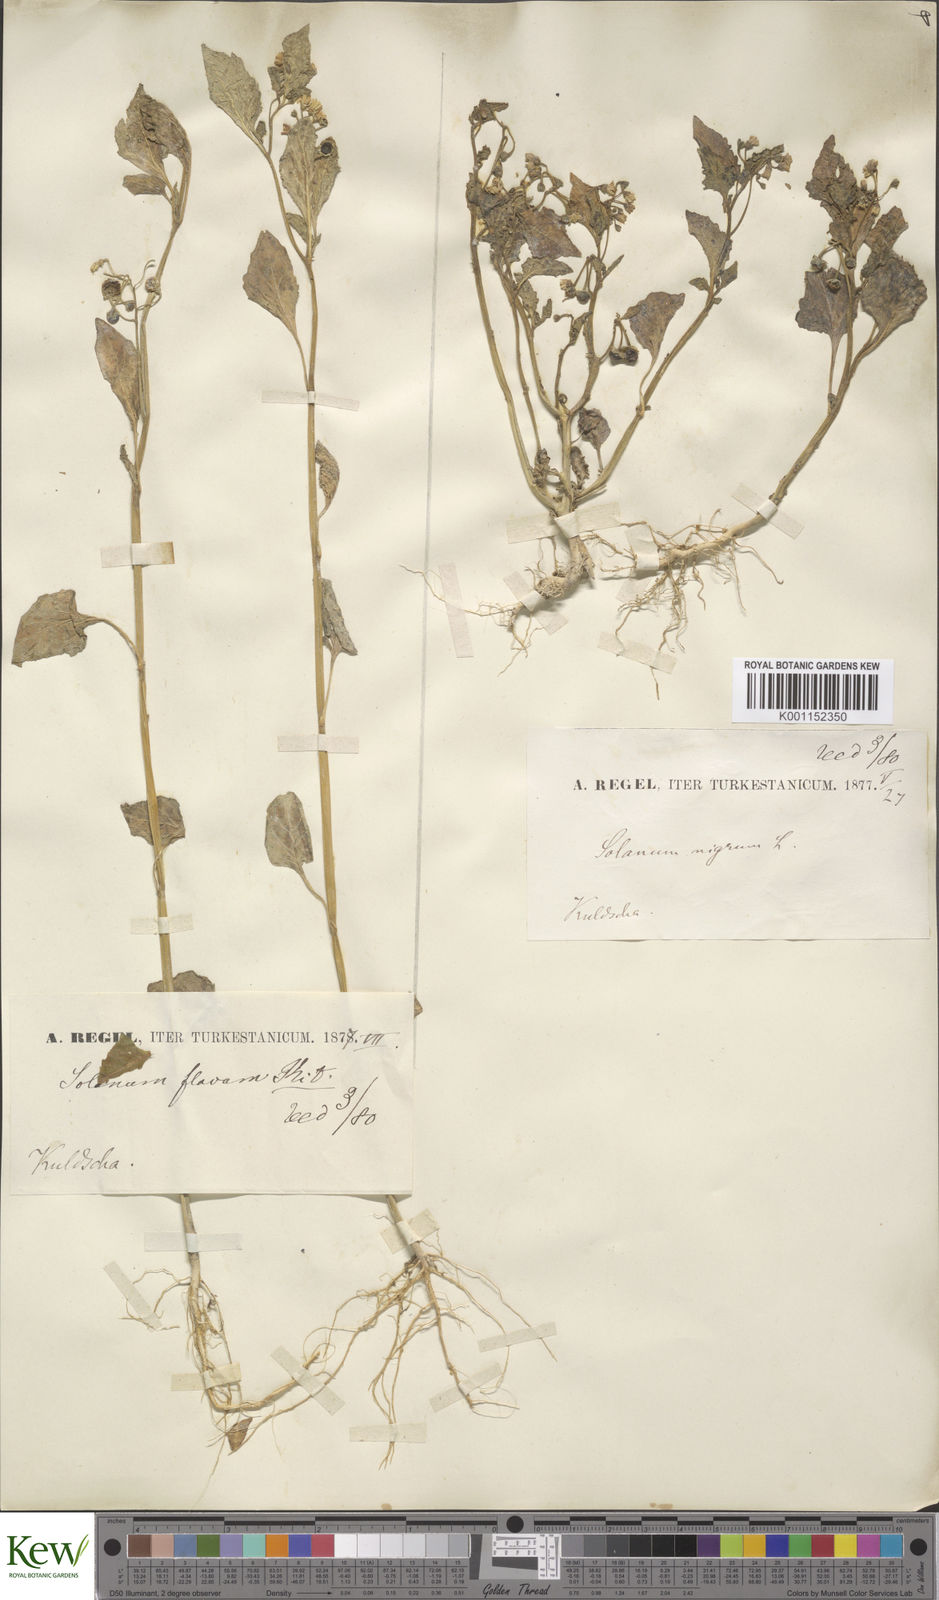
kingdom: Plantae
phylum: Tracheophyta
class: Magnoliopsida
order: Solanales
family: Solanaceae
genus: Solanum
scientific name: Solanum nigrum
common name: Black nightshade
